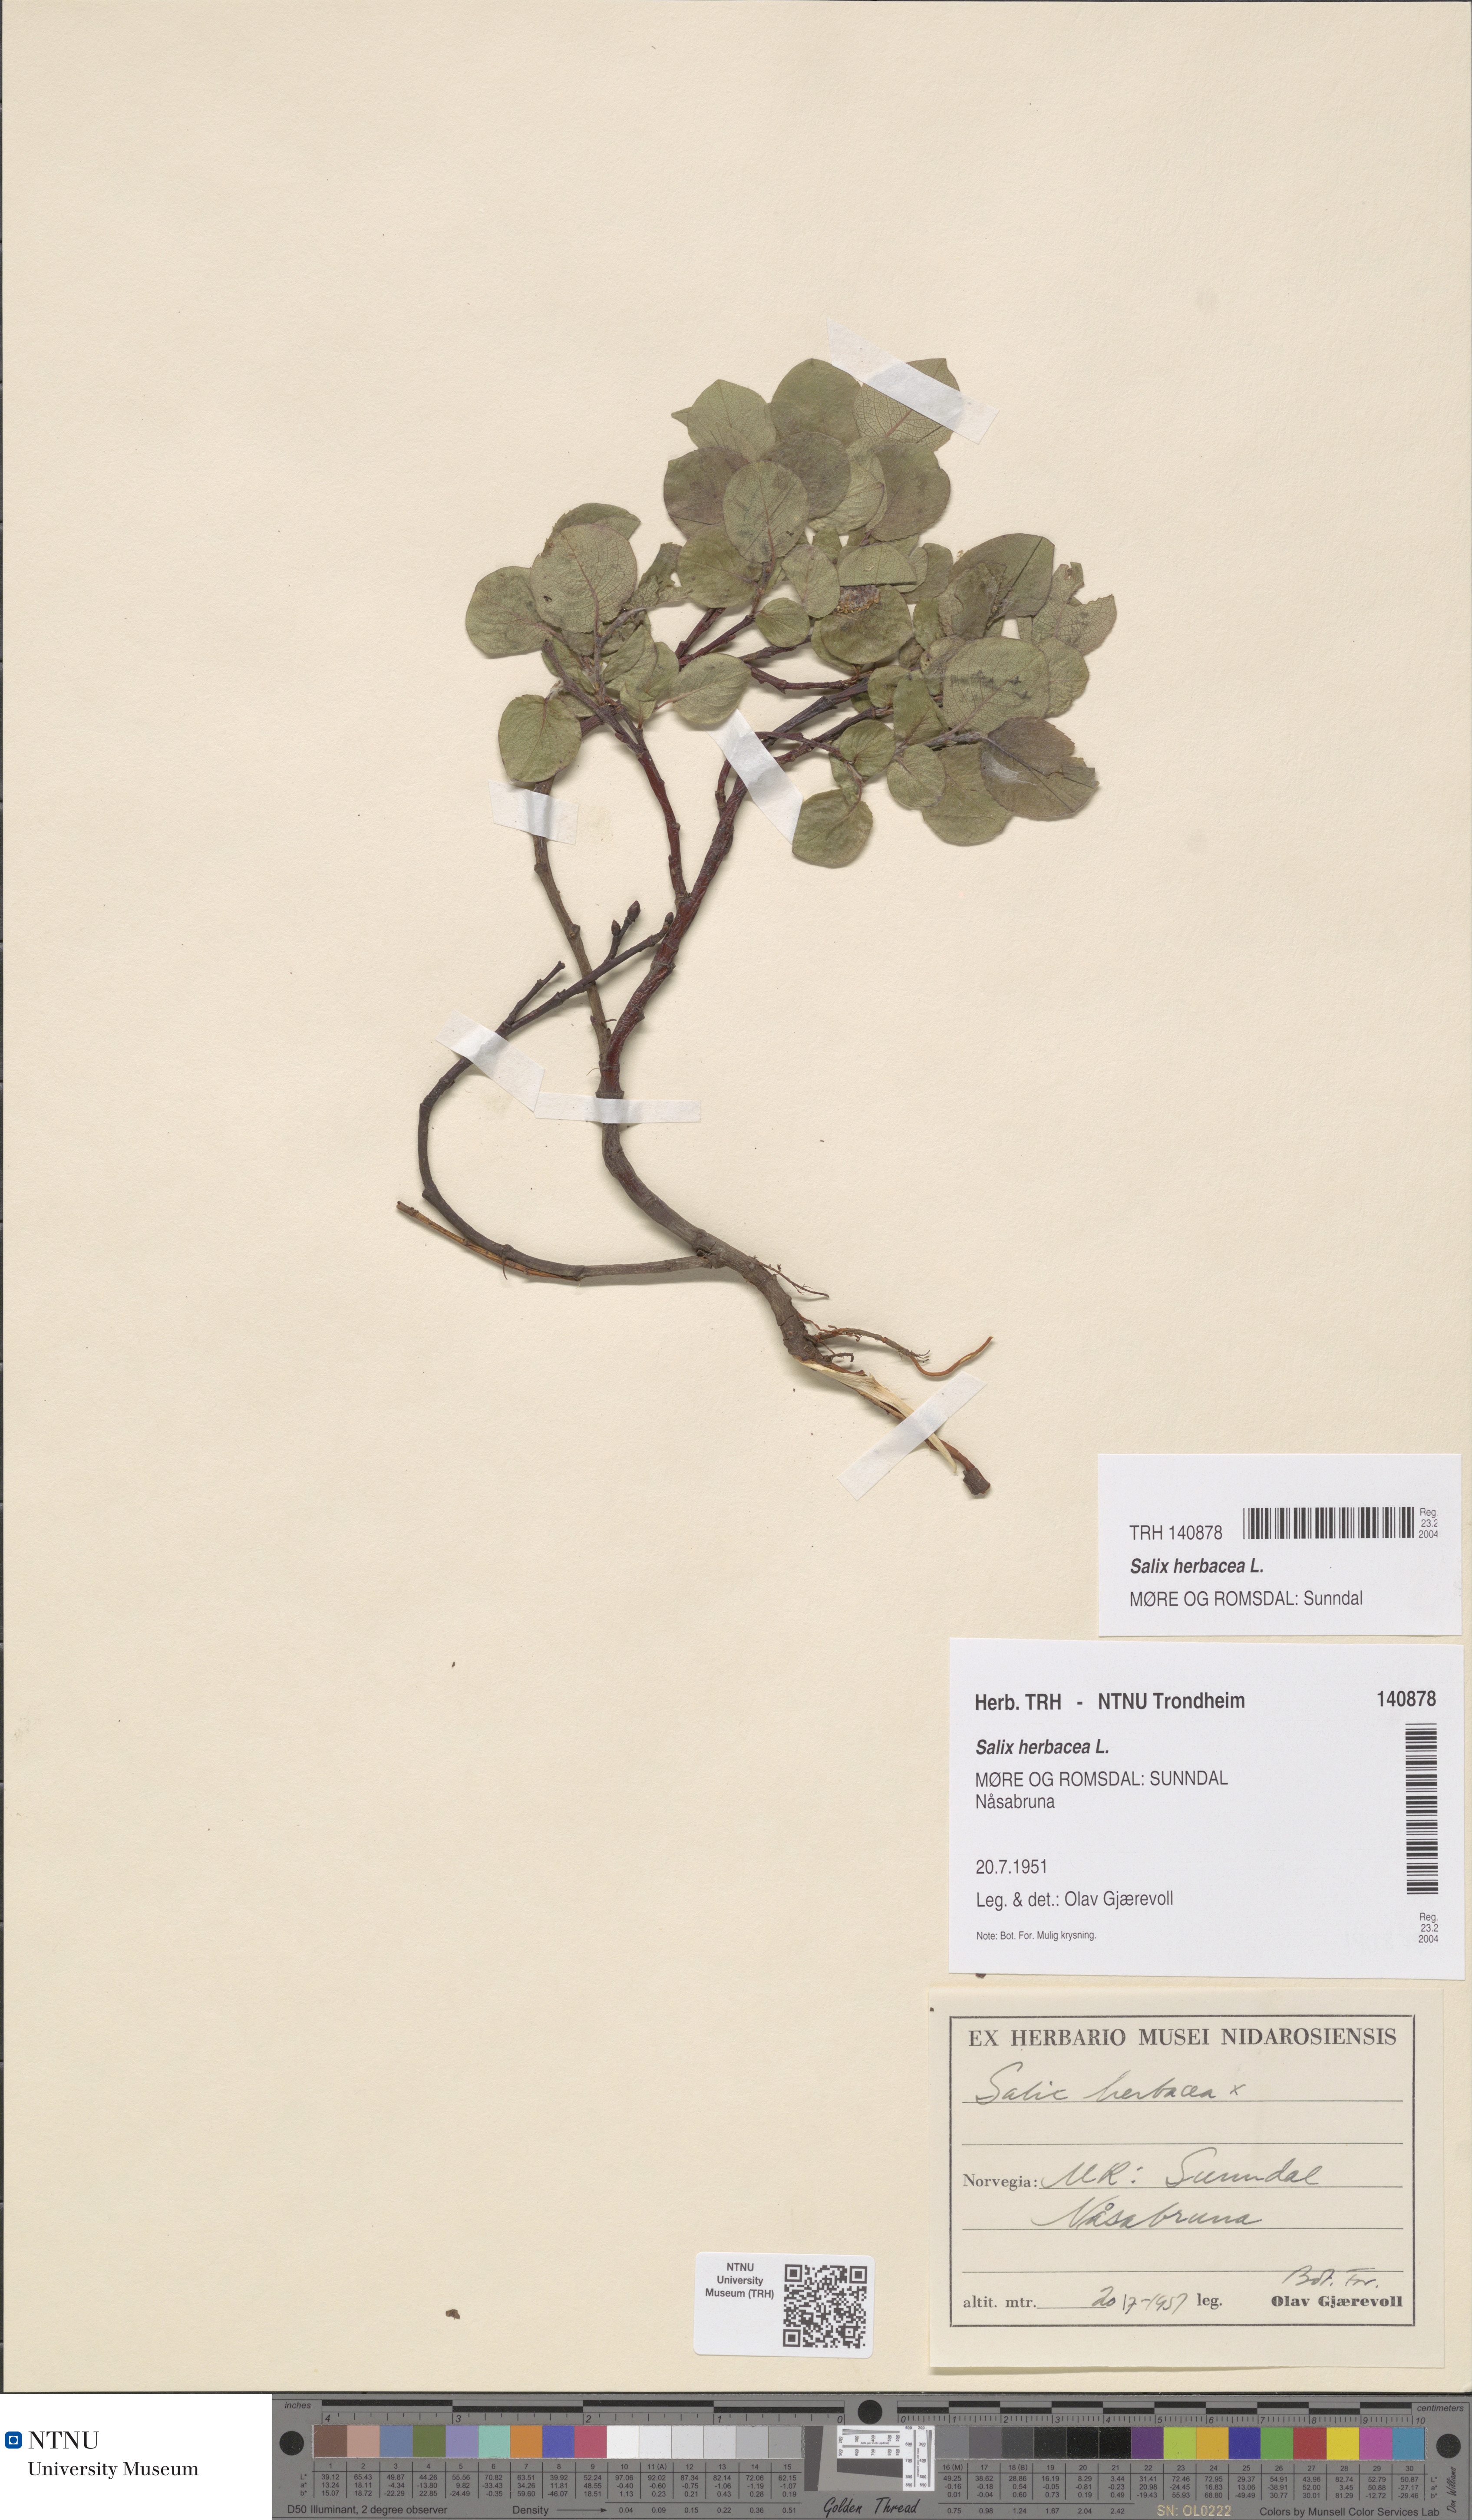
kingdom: Plantae
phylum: Tracheophyta
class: Magnoliopsida
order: Malpighiales
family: Salicaceae
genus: Salix
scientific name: Salix herbacea
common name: Dwarf willow
